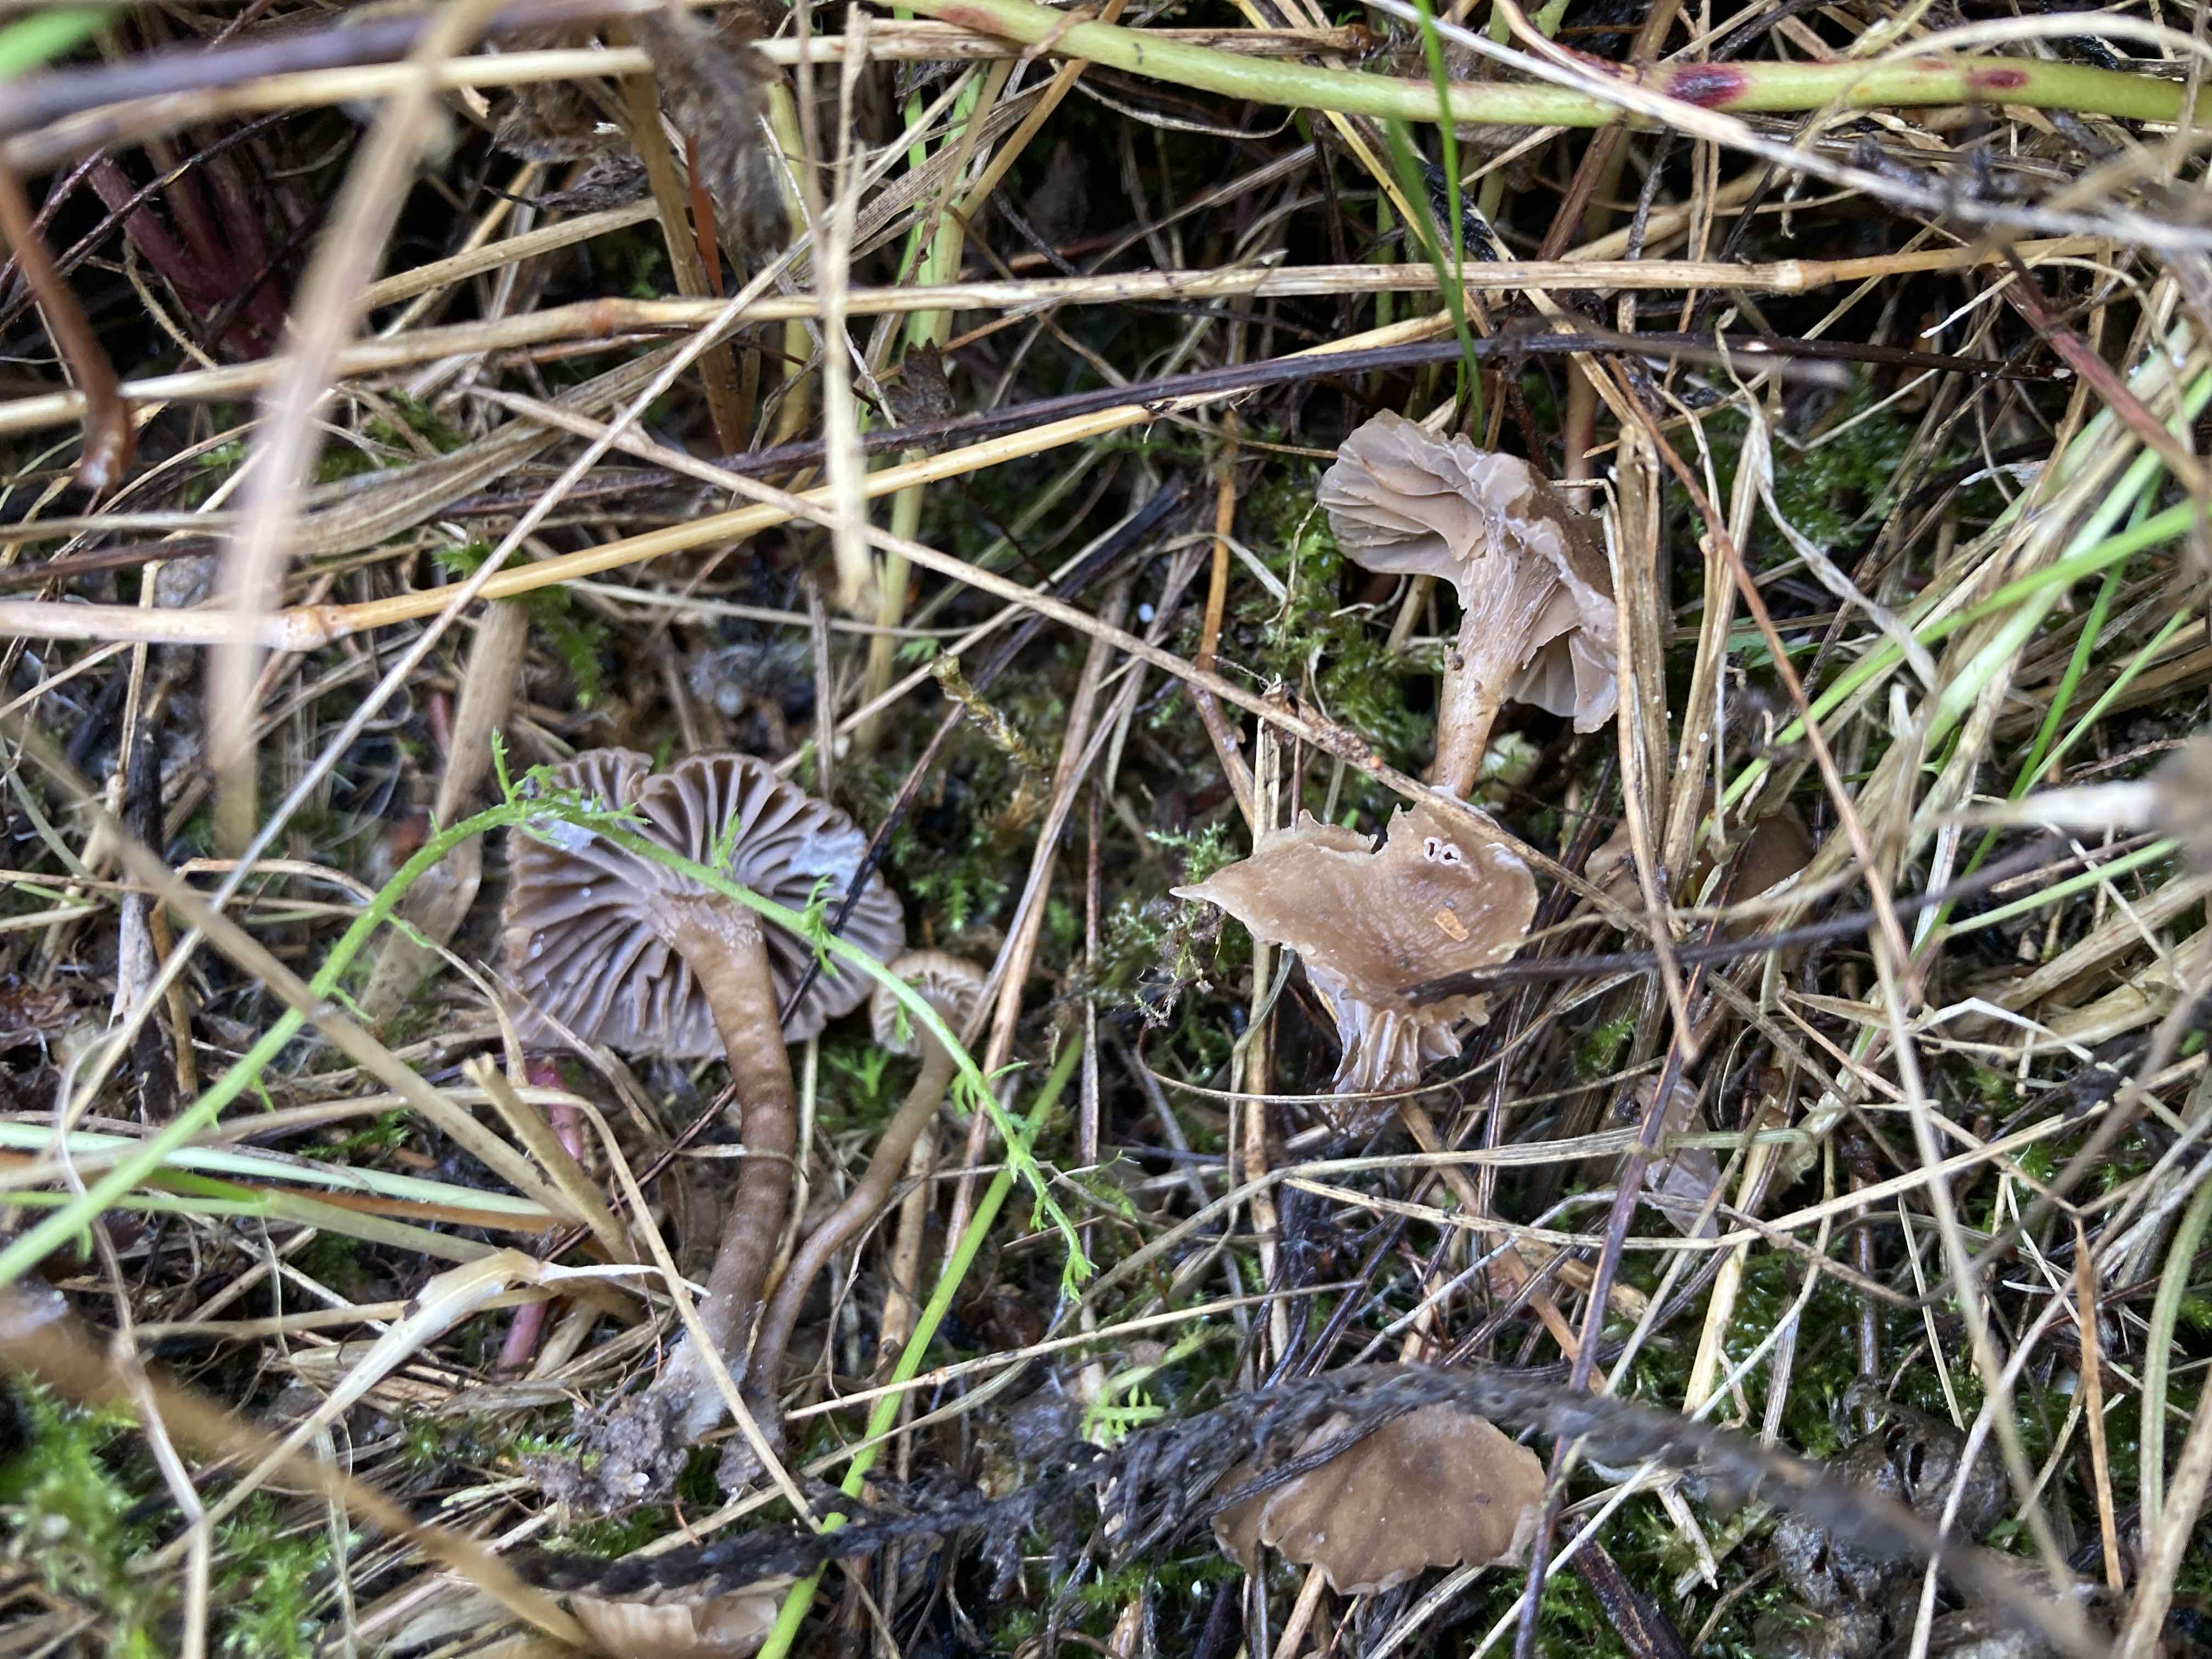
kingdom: Fungi
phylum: Basidiomycota
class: Agaricomycetes
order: Agaricales
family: Clavariaceae
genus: Hodophilus
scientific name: Hodophilus
